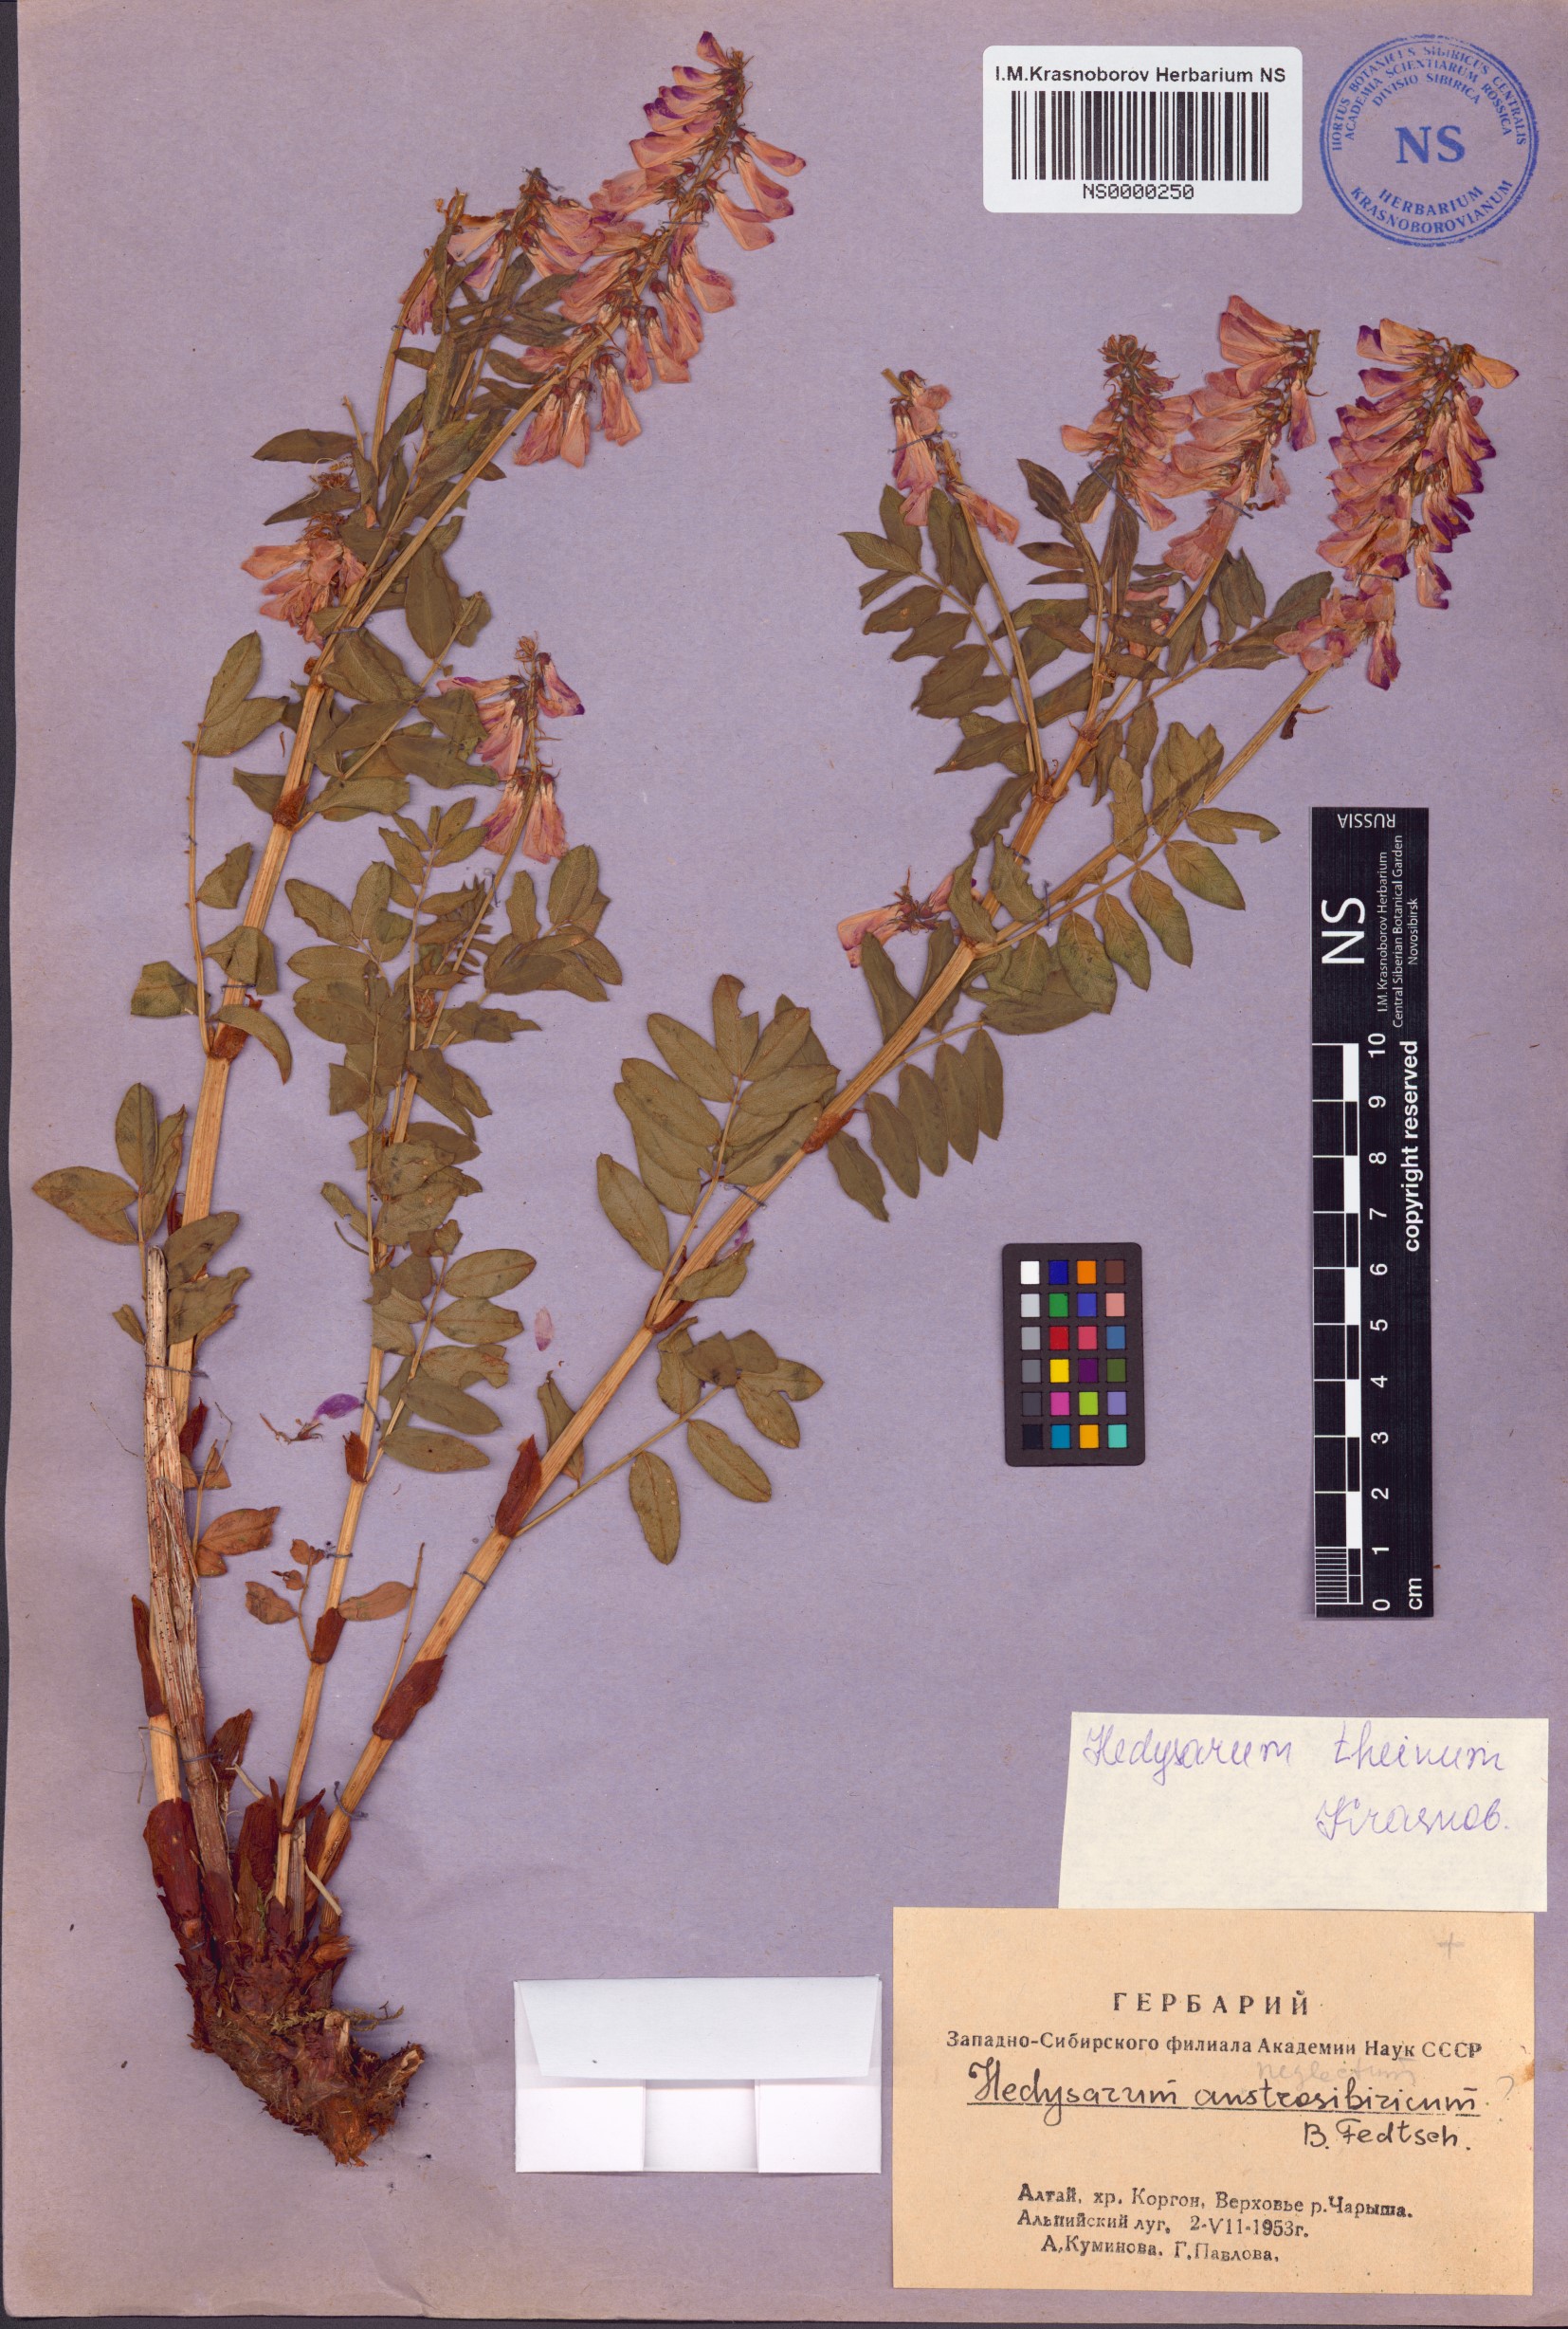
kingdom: Plantae
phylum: Tracheophyta
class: Magnoliopsida
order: Fabales
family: Fabaceae
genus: Hedysarum
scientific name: Hedysarum theinum
